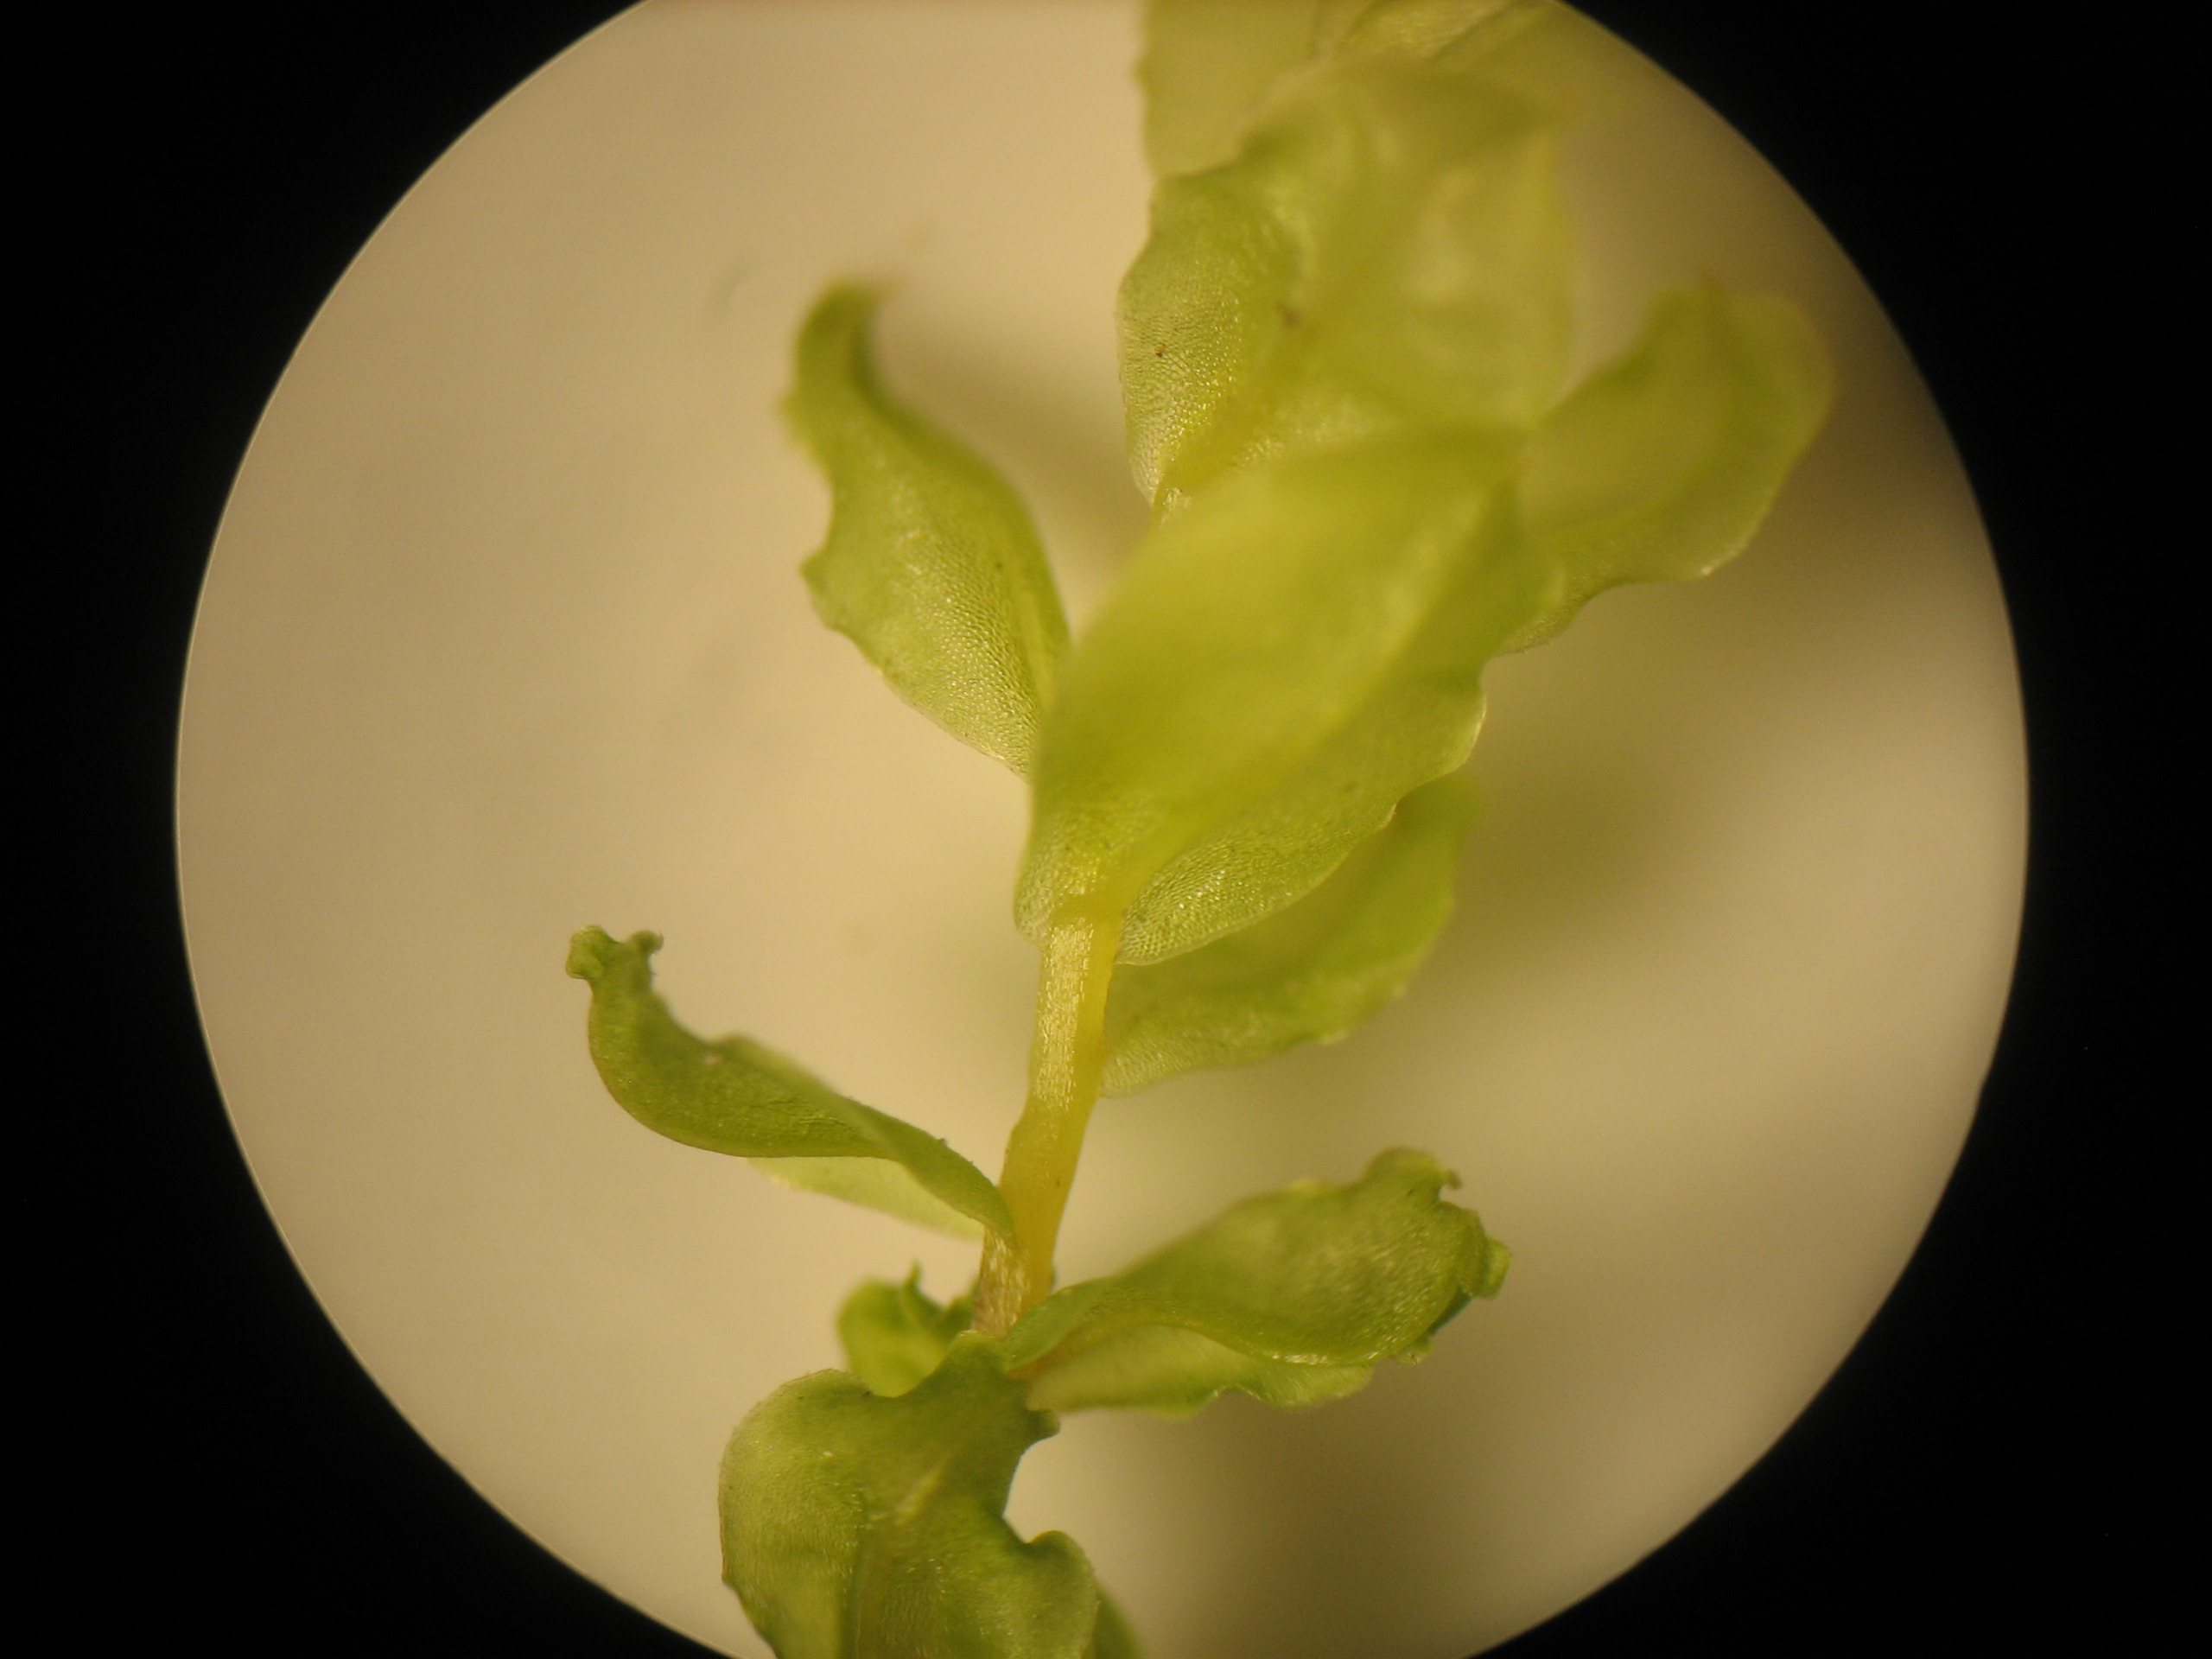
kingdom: Plantae
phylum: Bryophyta
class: Bryopsida
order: Bryales
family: Mniaceae
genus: Plagiomnium
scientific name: Plagiomnium
